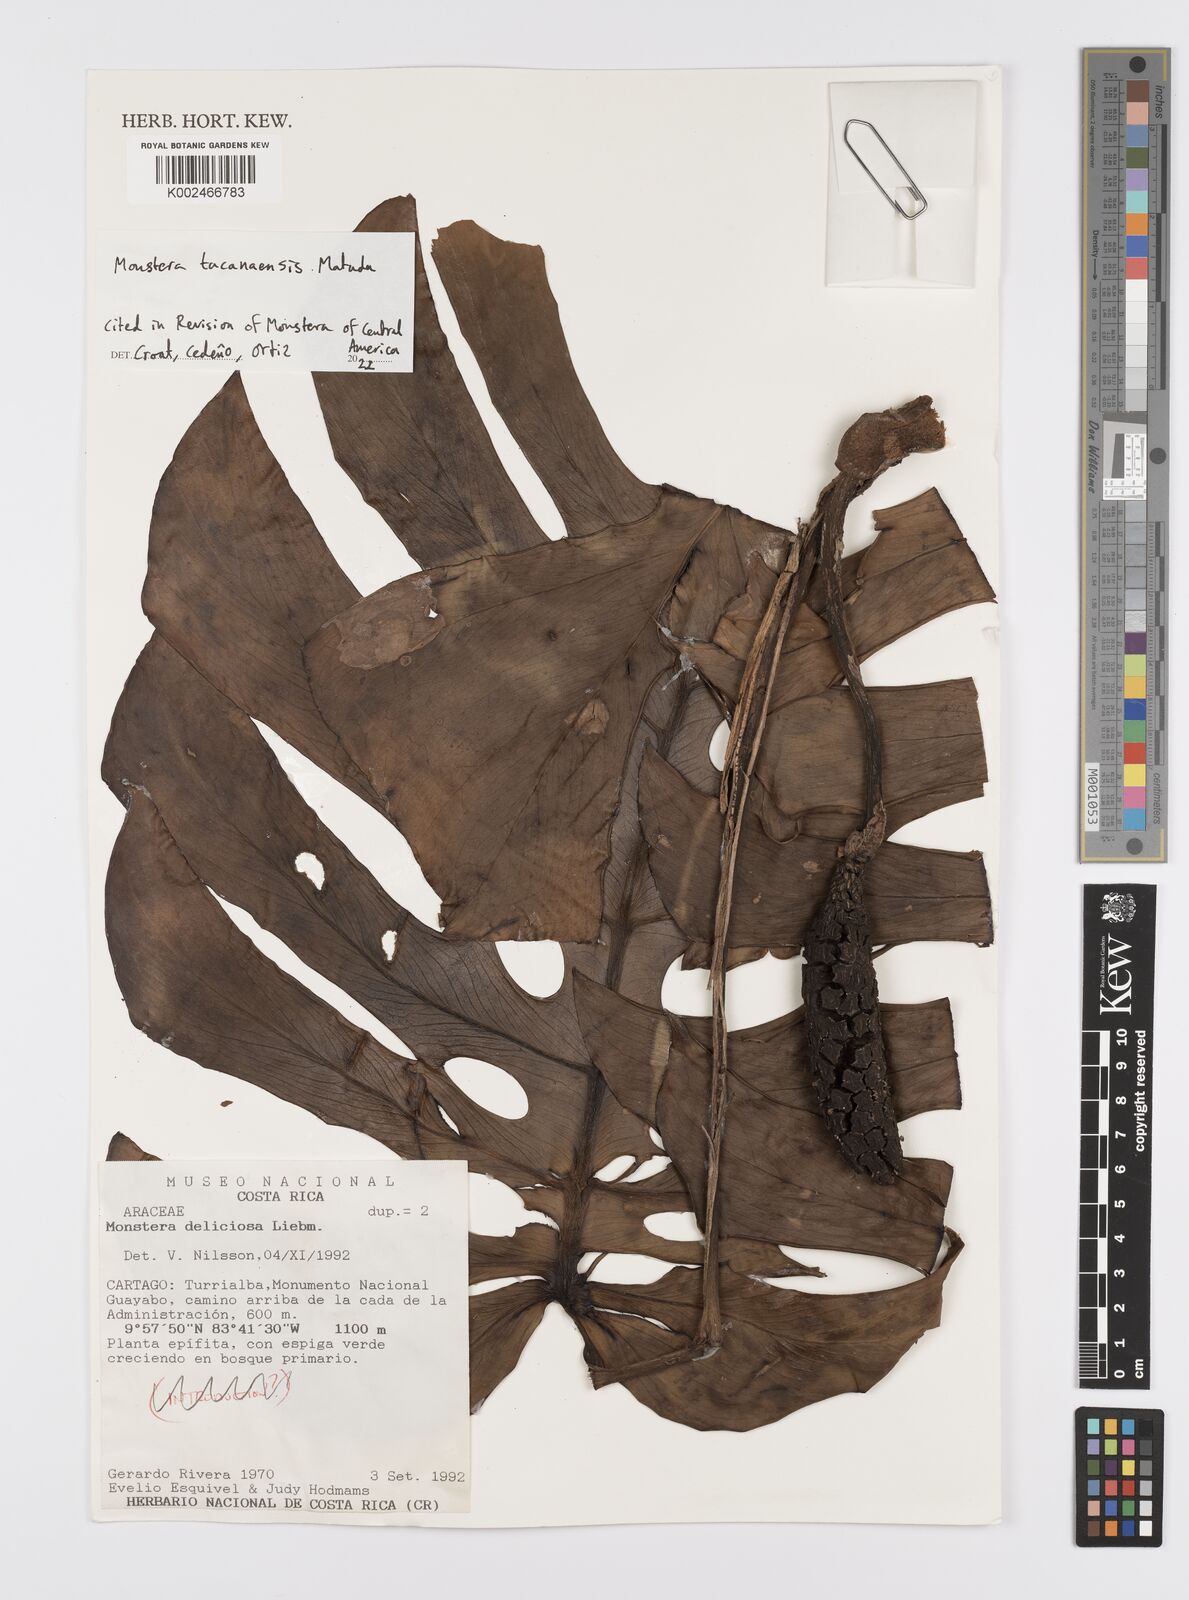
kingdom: Plantae
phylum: Tracheophyta
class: Liliopsida
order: Alismatales
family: Araceae
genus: Monstera
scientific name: Monstera tacanaensis
